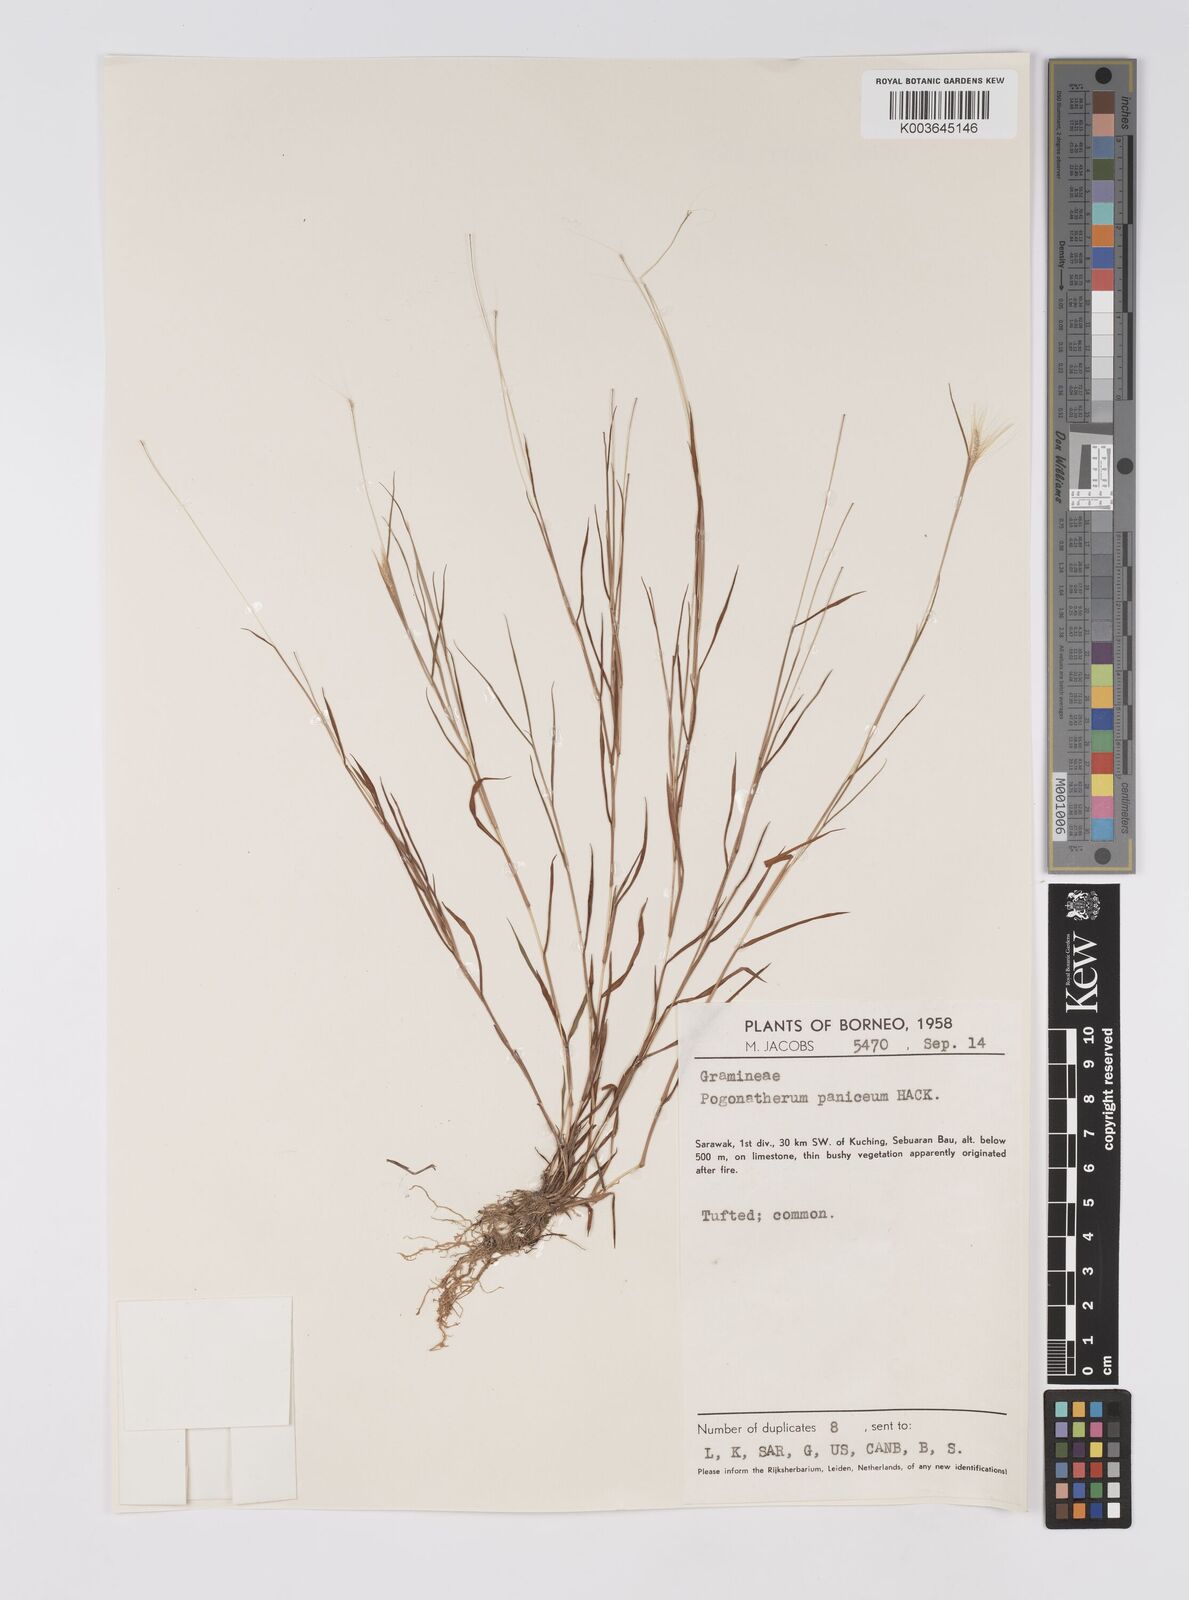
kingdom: Plantae
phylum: Tracheophyta
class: Liliopsida
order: Poales
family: Poaceae
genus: Pogonatherum
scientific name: Pogonatherum crinitum
